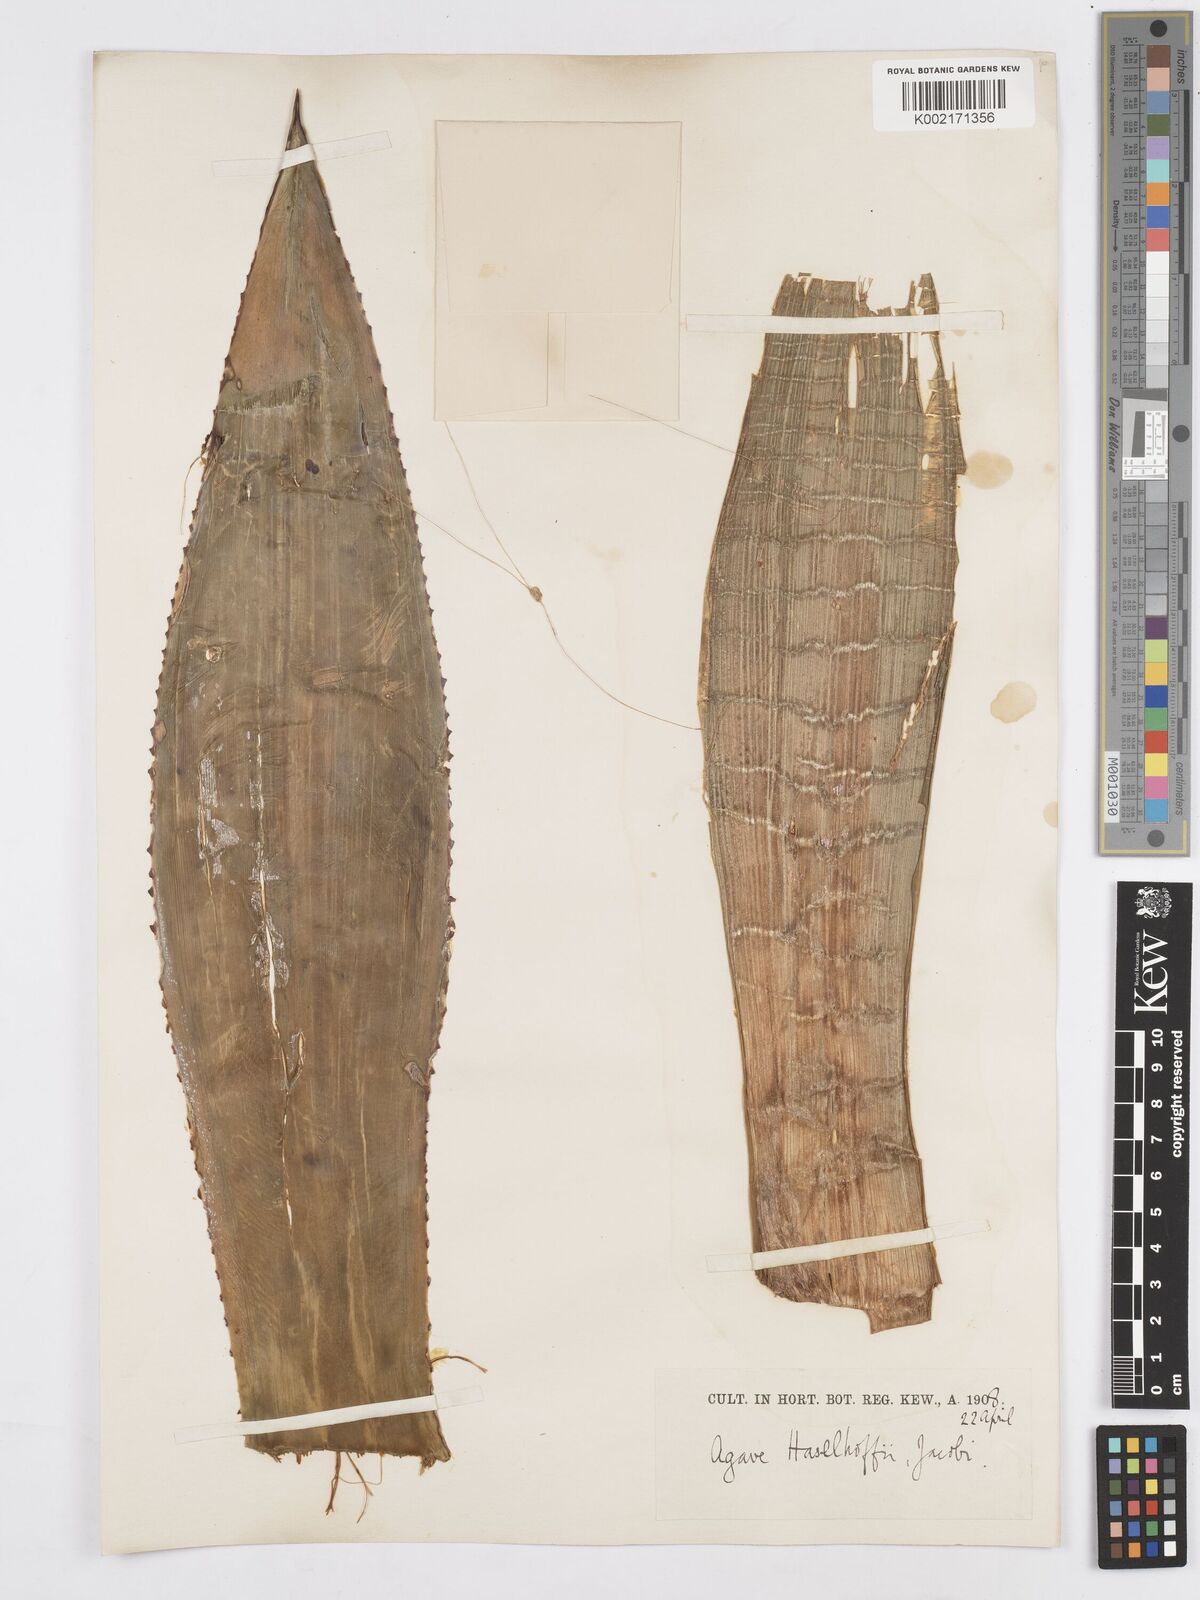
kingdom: Plantae
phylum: Tracheophyta
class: Liliopsida
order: Asparagales
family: Asparagaceae
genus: Agave
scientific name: Agave mitis
